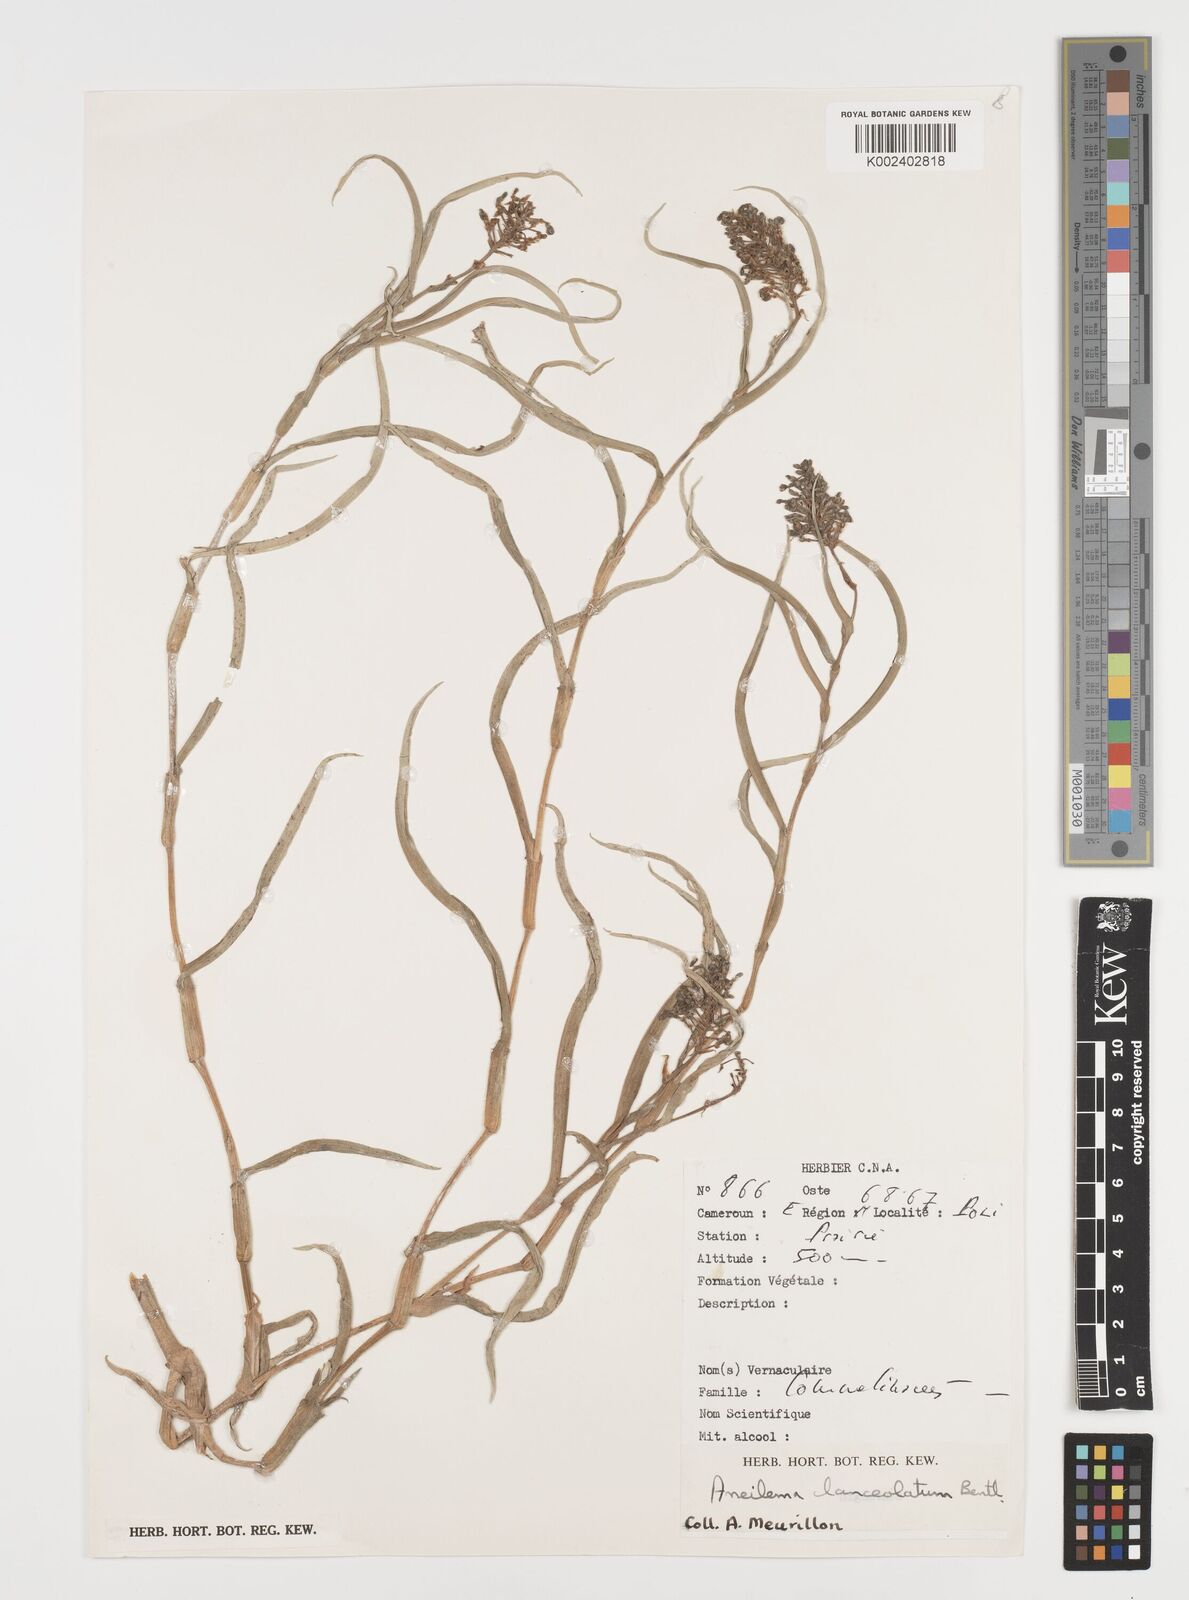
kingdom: Plantae
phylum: Tracheophyta
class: Liliopsida
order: Commelinales
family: Commelinaceae
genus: Aneilema
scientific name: Aneilema lanceolatum
